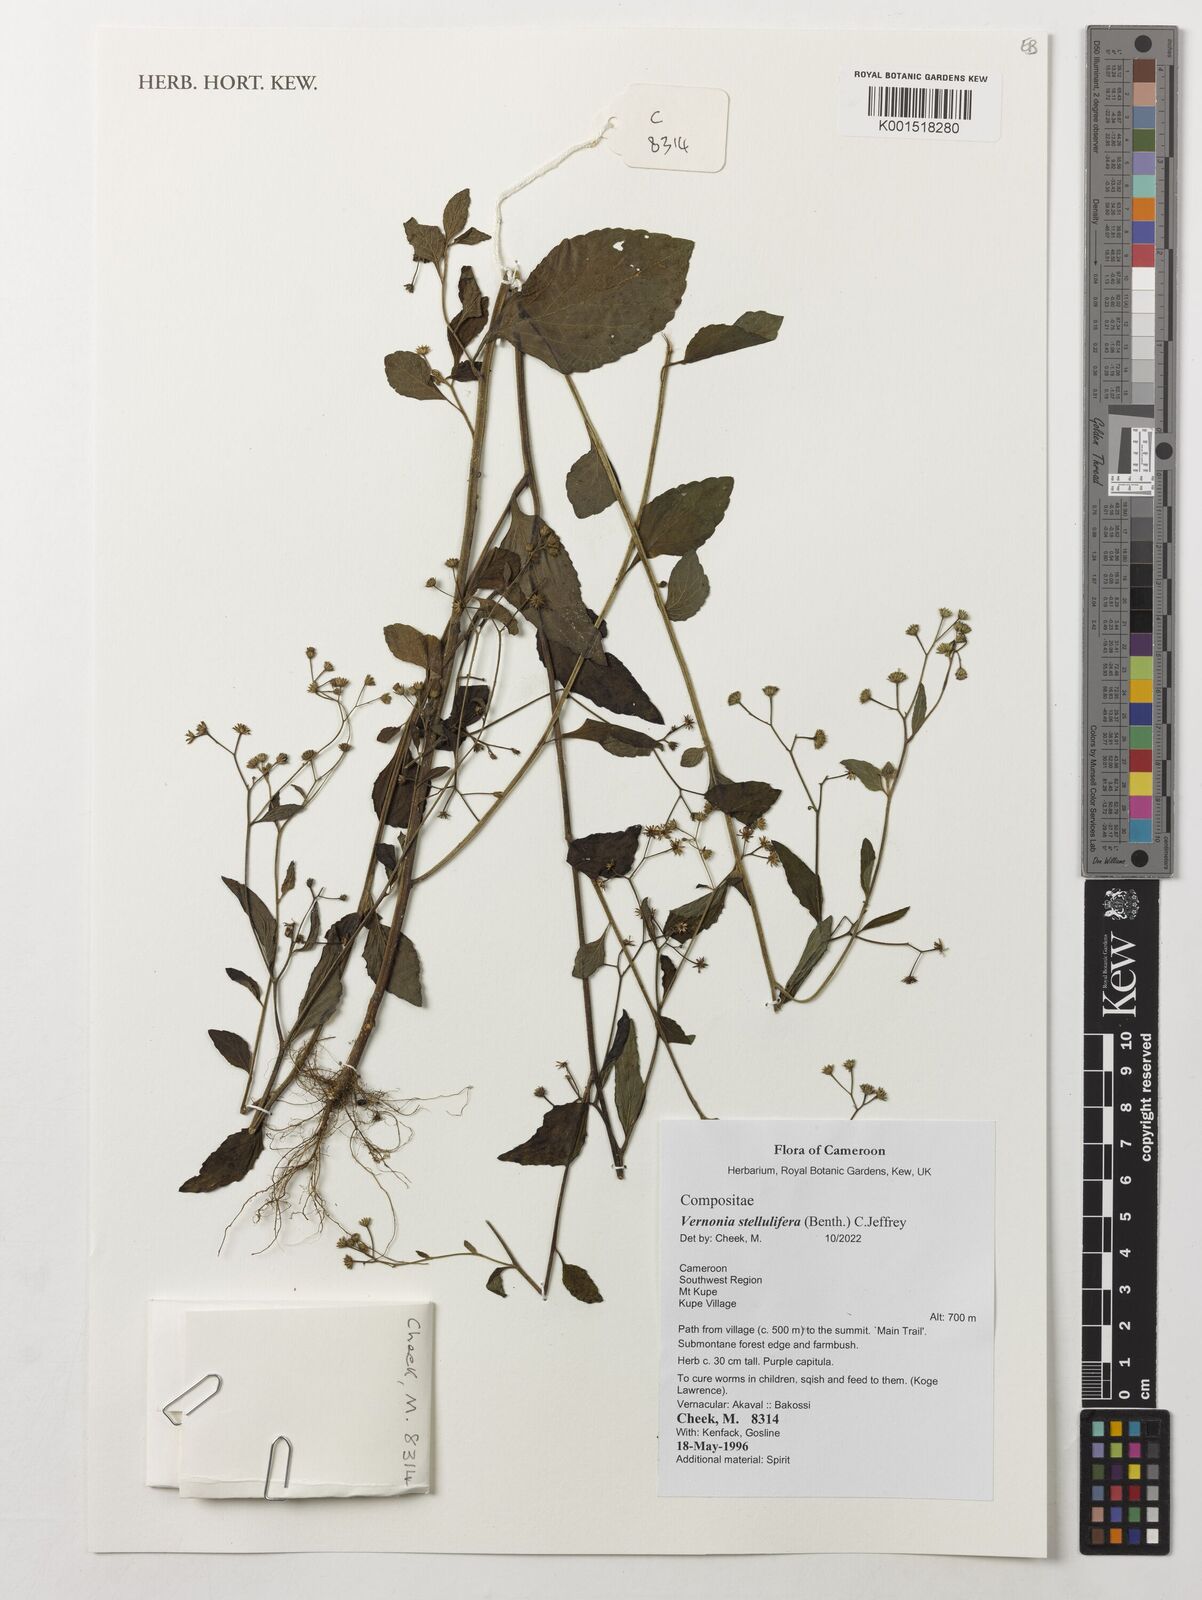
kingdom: Plantae
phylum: Tracheophyta
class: Magnoliopsida
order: Asterales
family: Asteraceae
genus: Cyanthillium
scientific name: Cyanthillium stelluliferum
